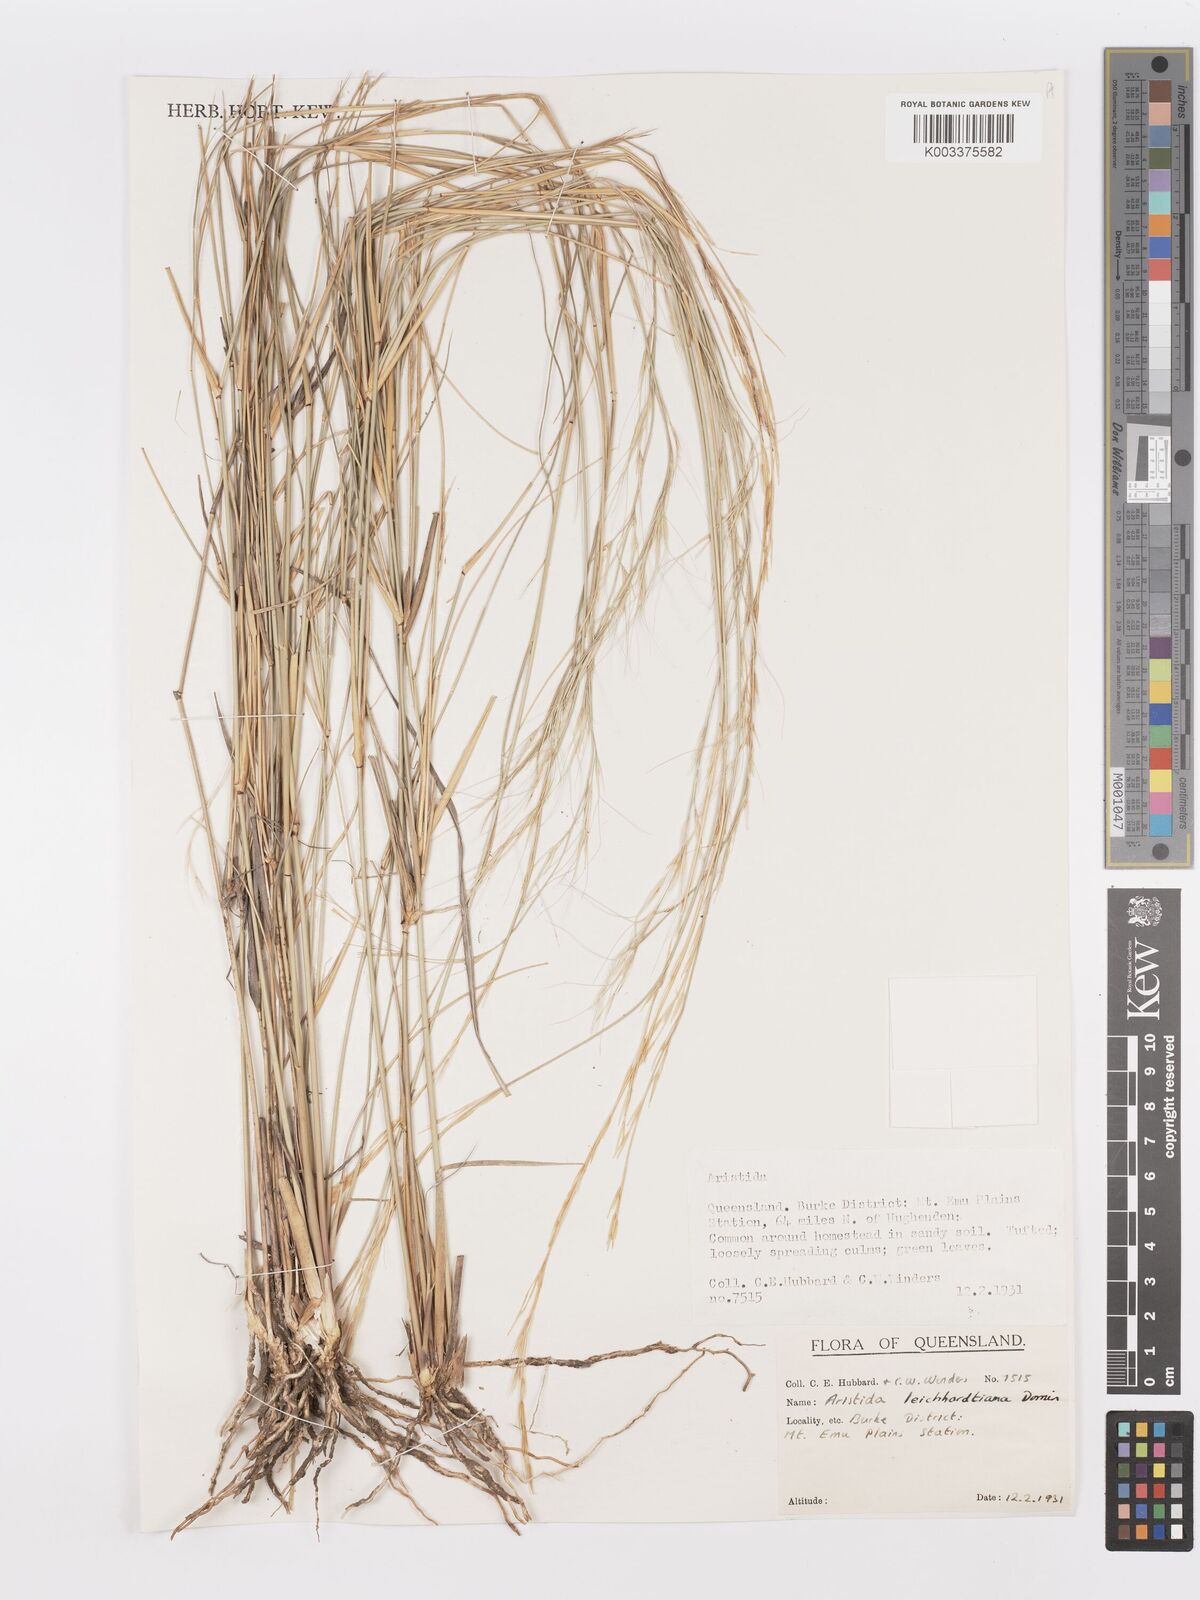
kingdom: Plantae
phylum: Tracheophyta
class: Liliopsida
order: Poales
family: Poaceae
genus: Aristida
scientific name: Aristida leichhardtiana
